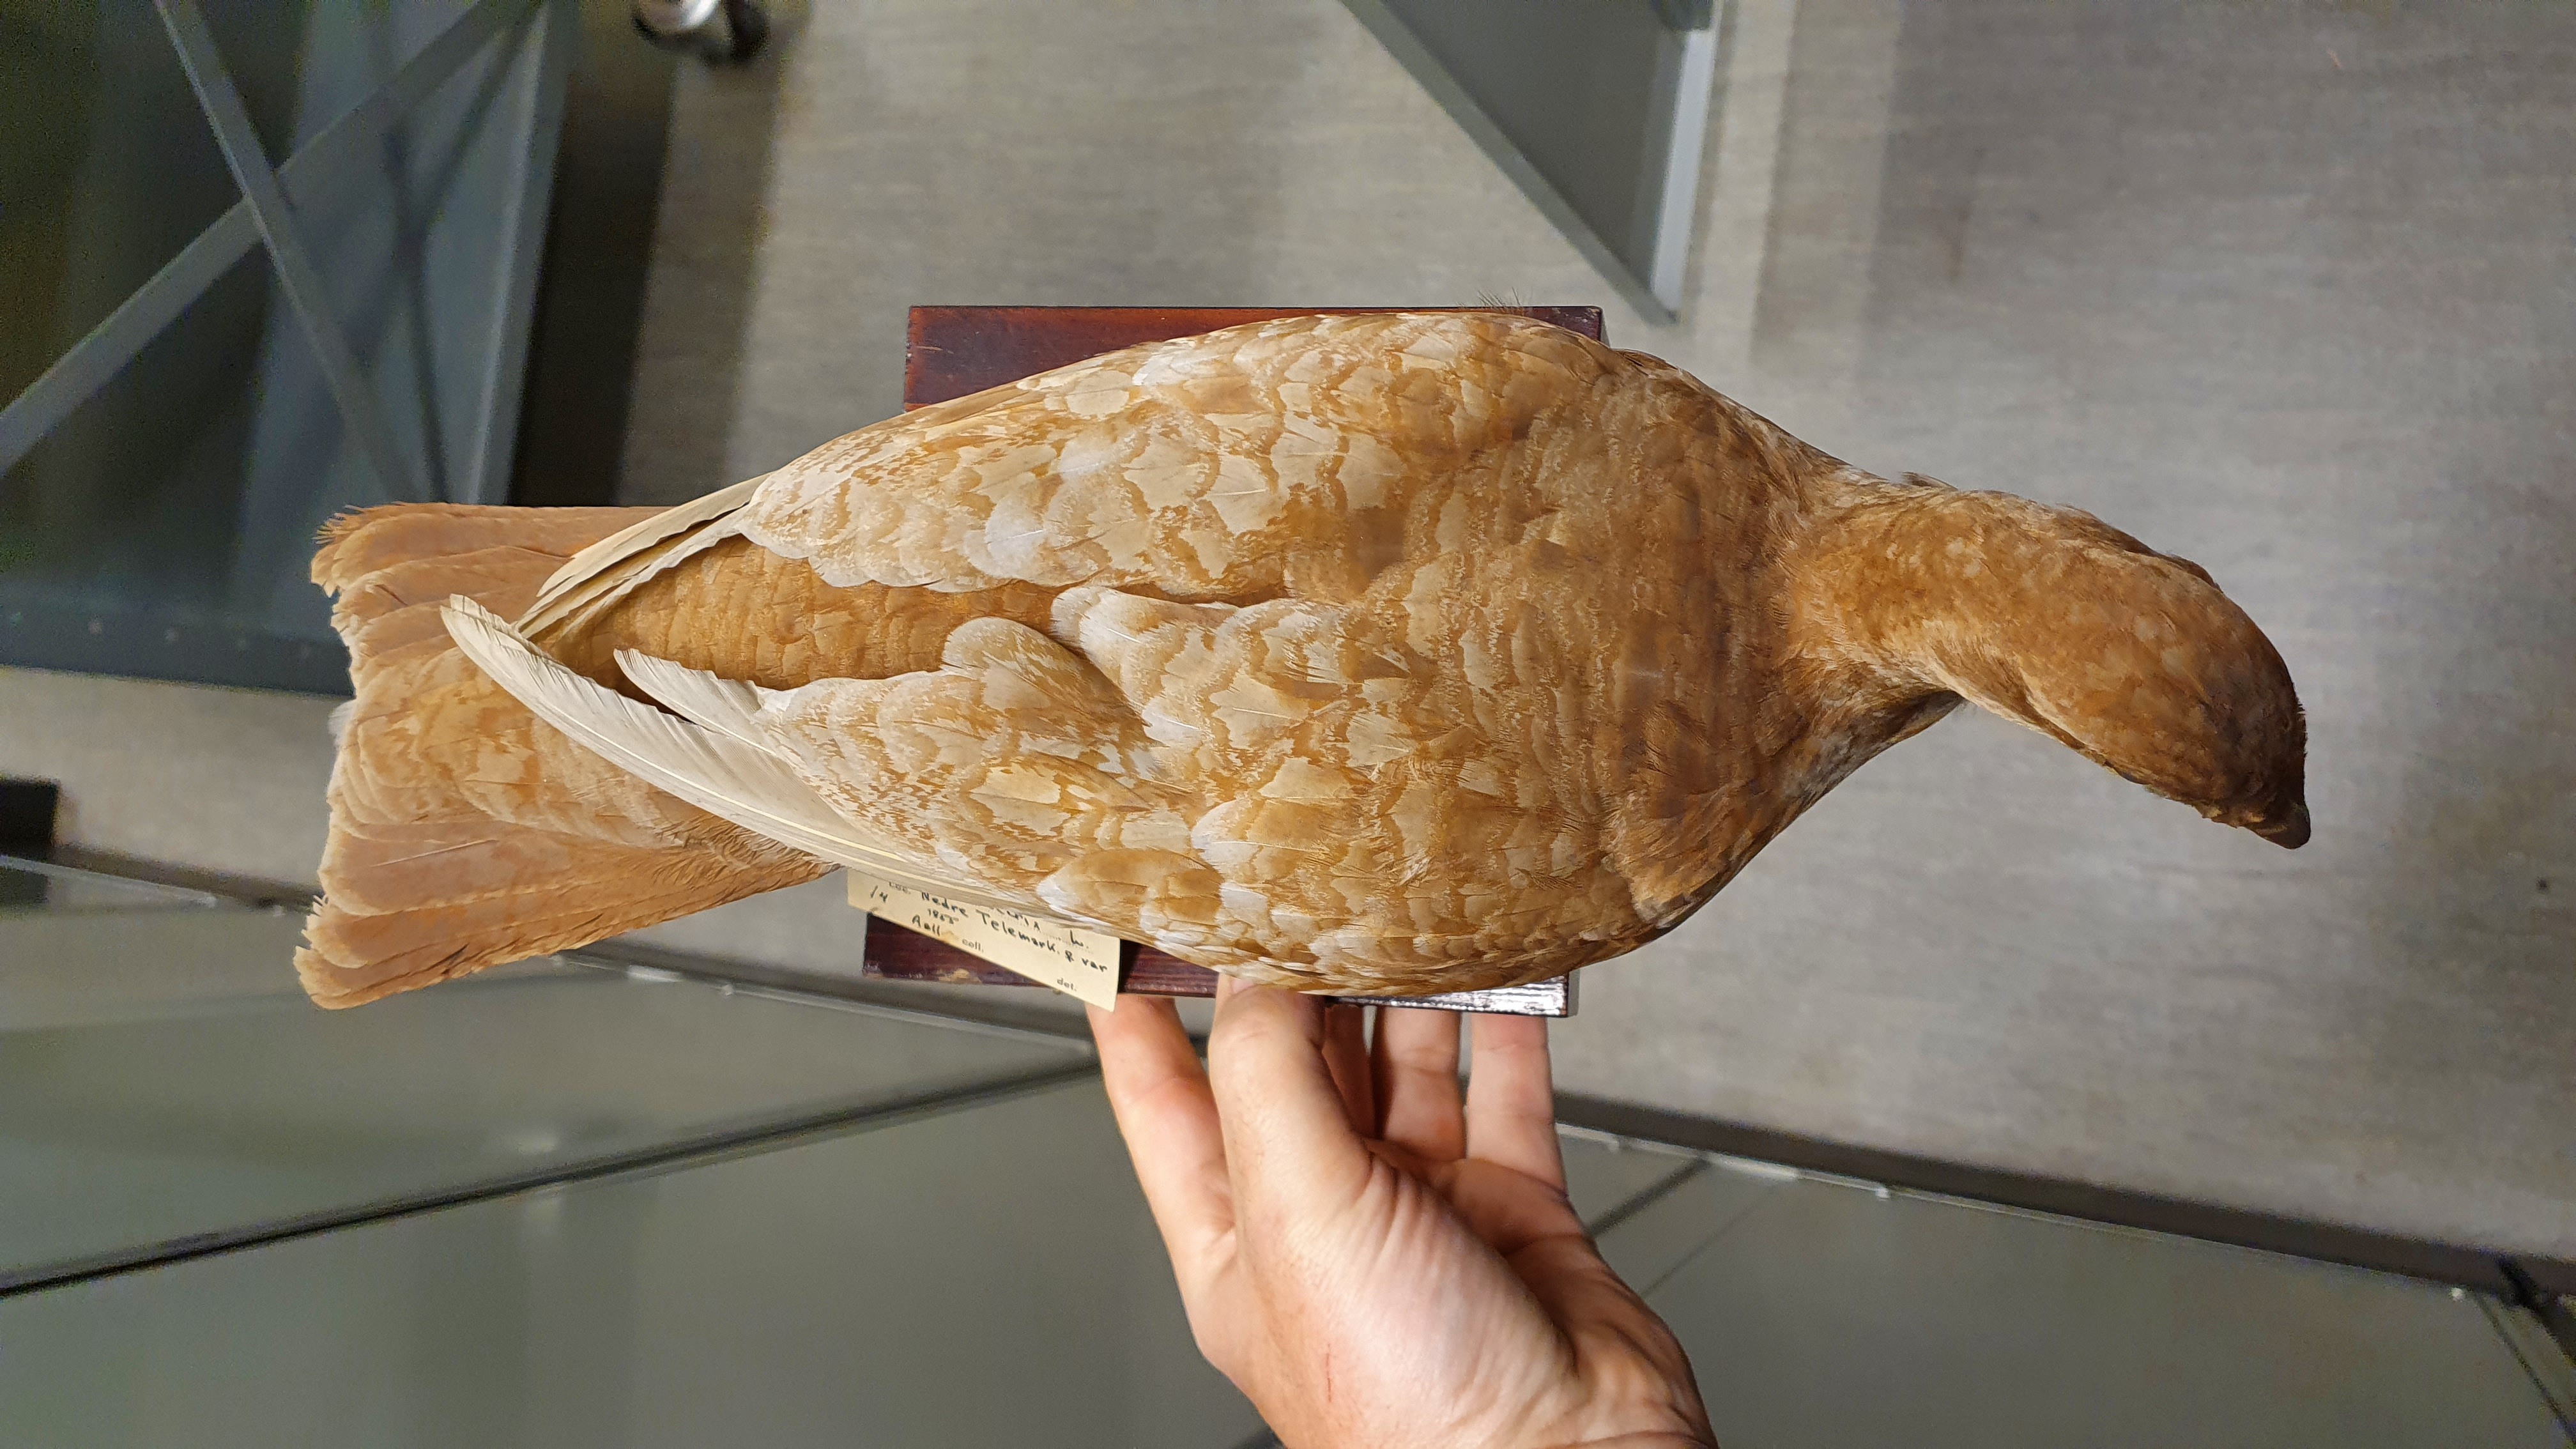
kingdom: Animalia
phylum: Chordata
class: Aves
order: Galliformes
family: Phasianidae
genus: Lyrurus
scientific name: Lyrurus tetrix
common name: Black grouse
